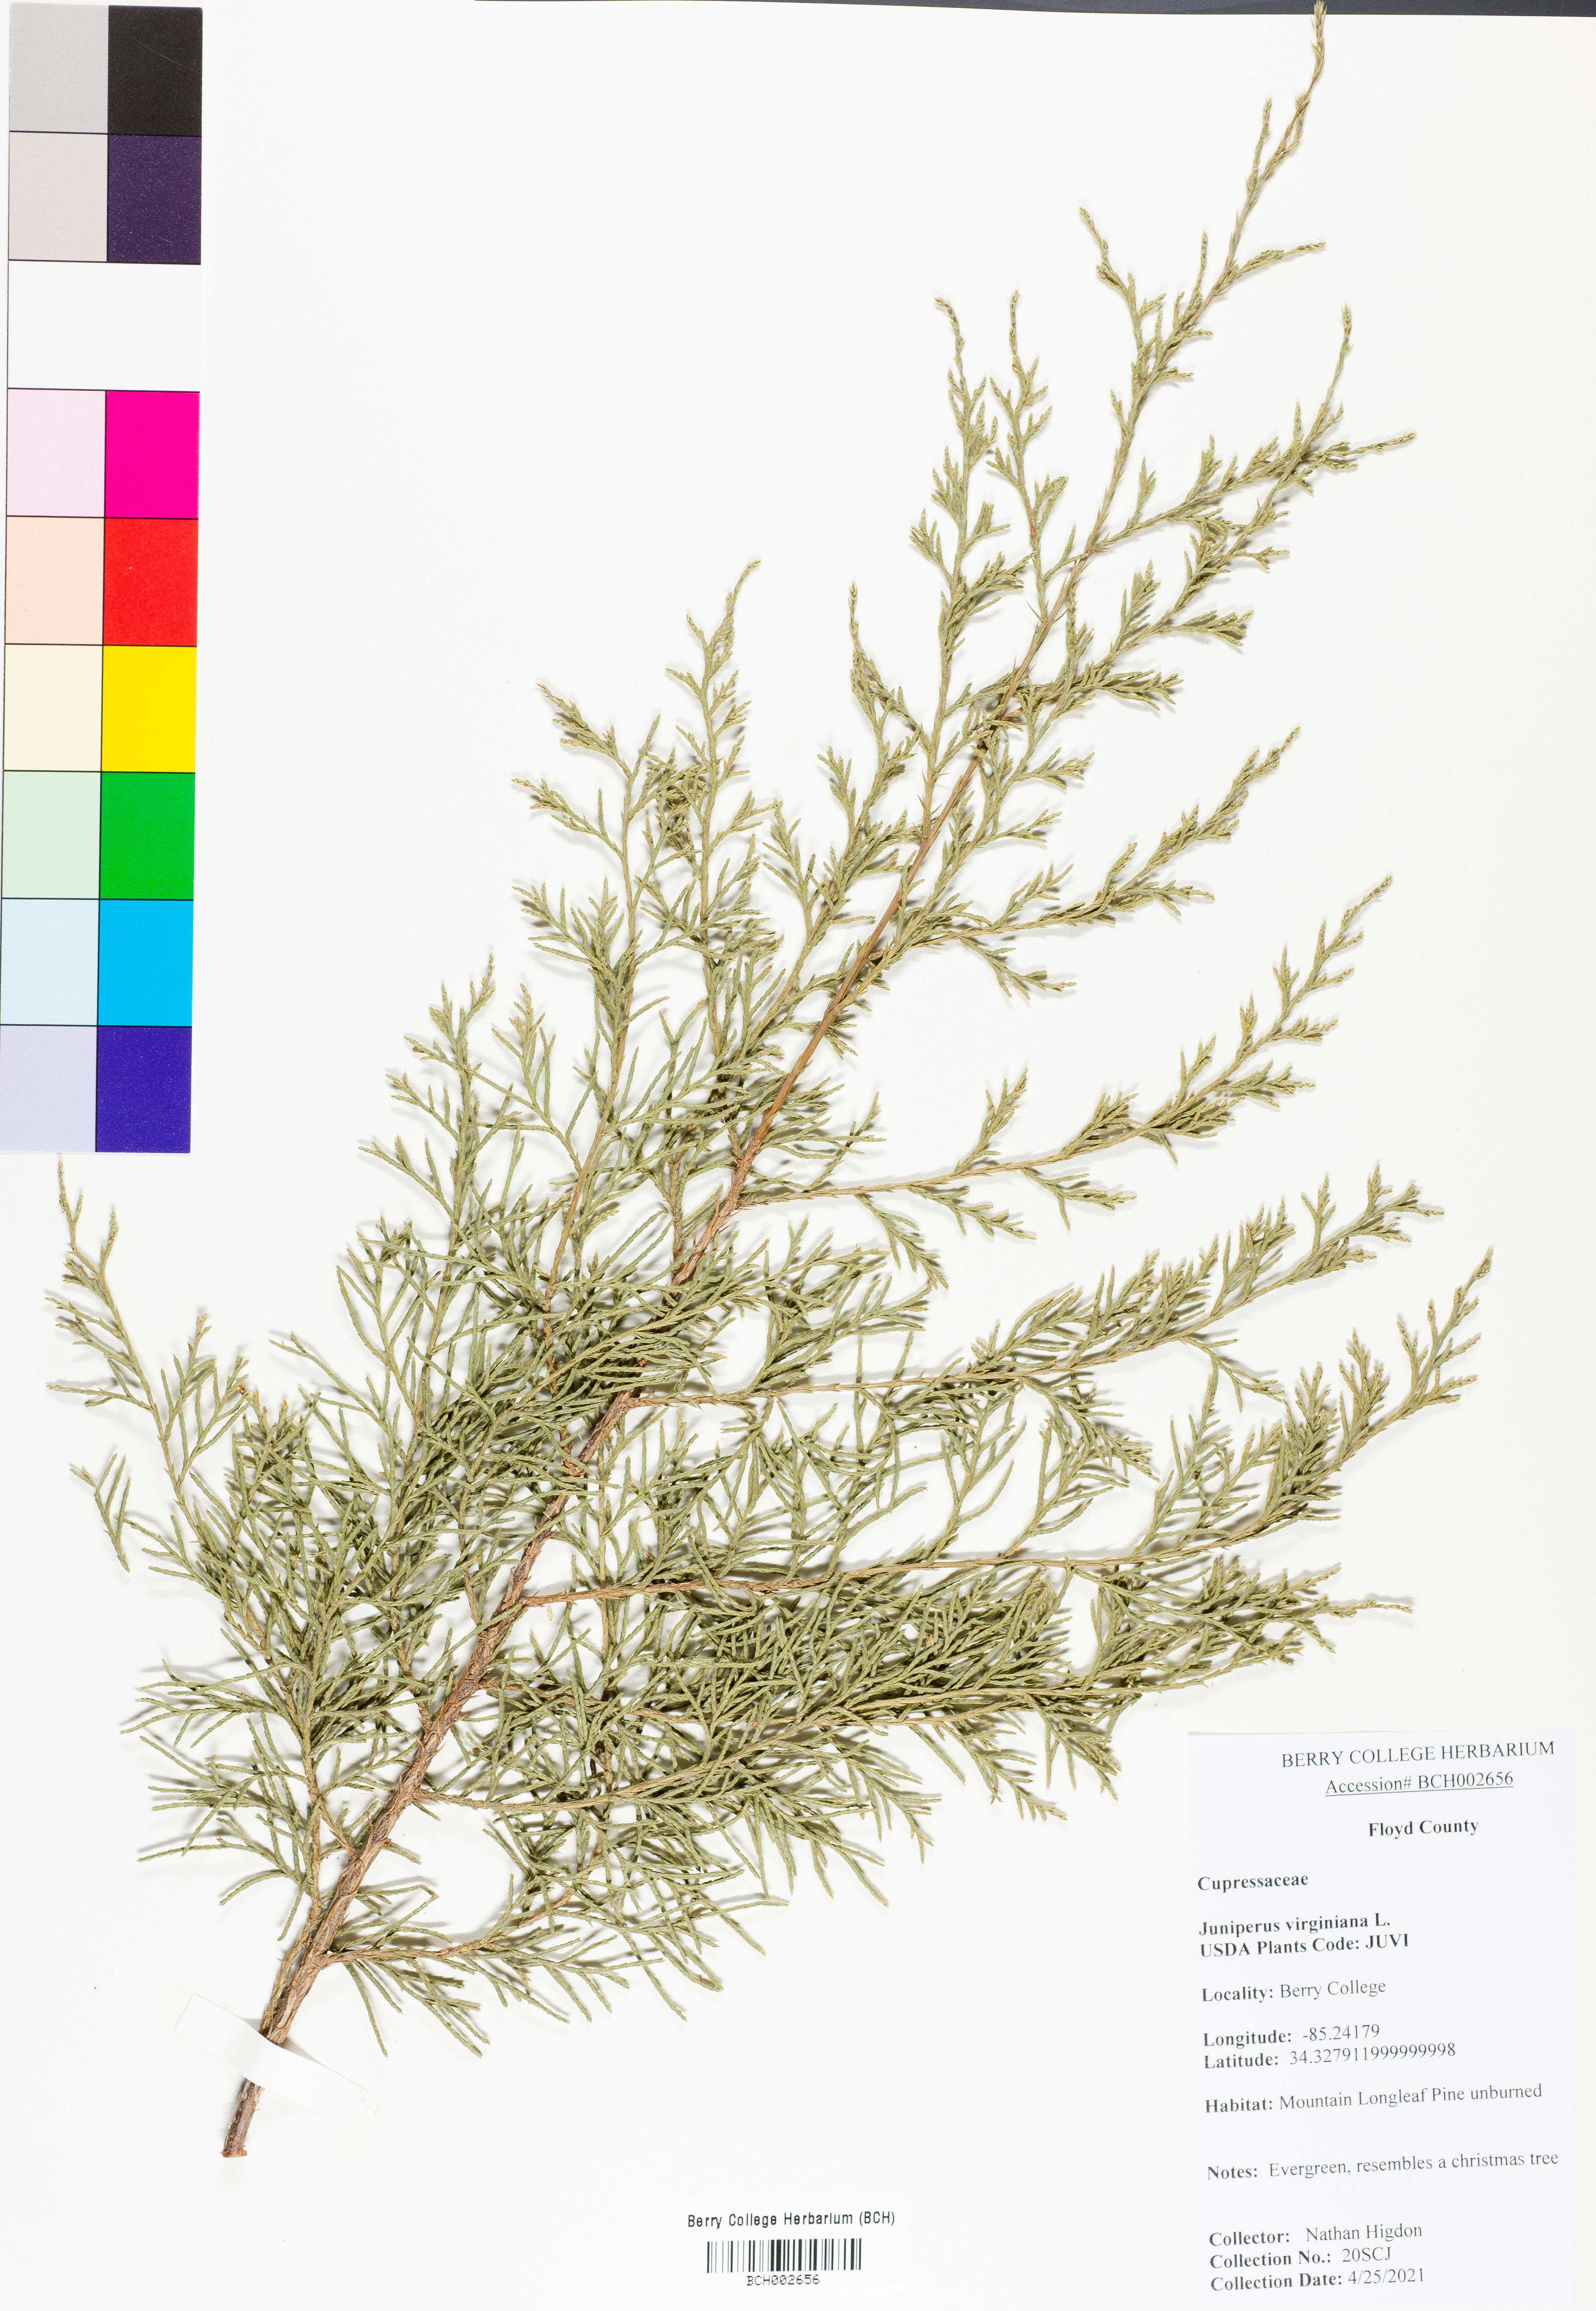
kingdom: Plantae
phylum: Tracheophyta
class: Pinopsida
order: Pinales
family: Cupressaceae
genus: Juniperus
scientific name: Juniperus virginiana
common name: Red juniper
